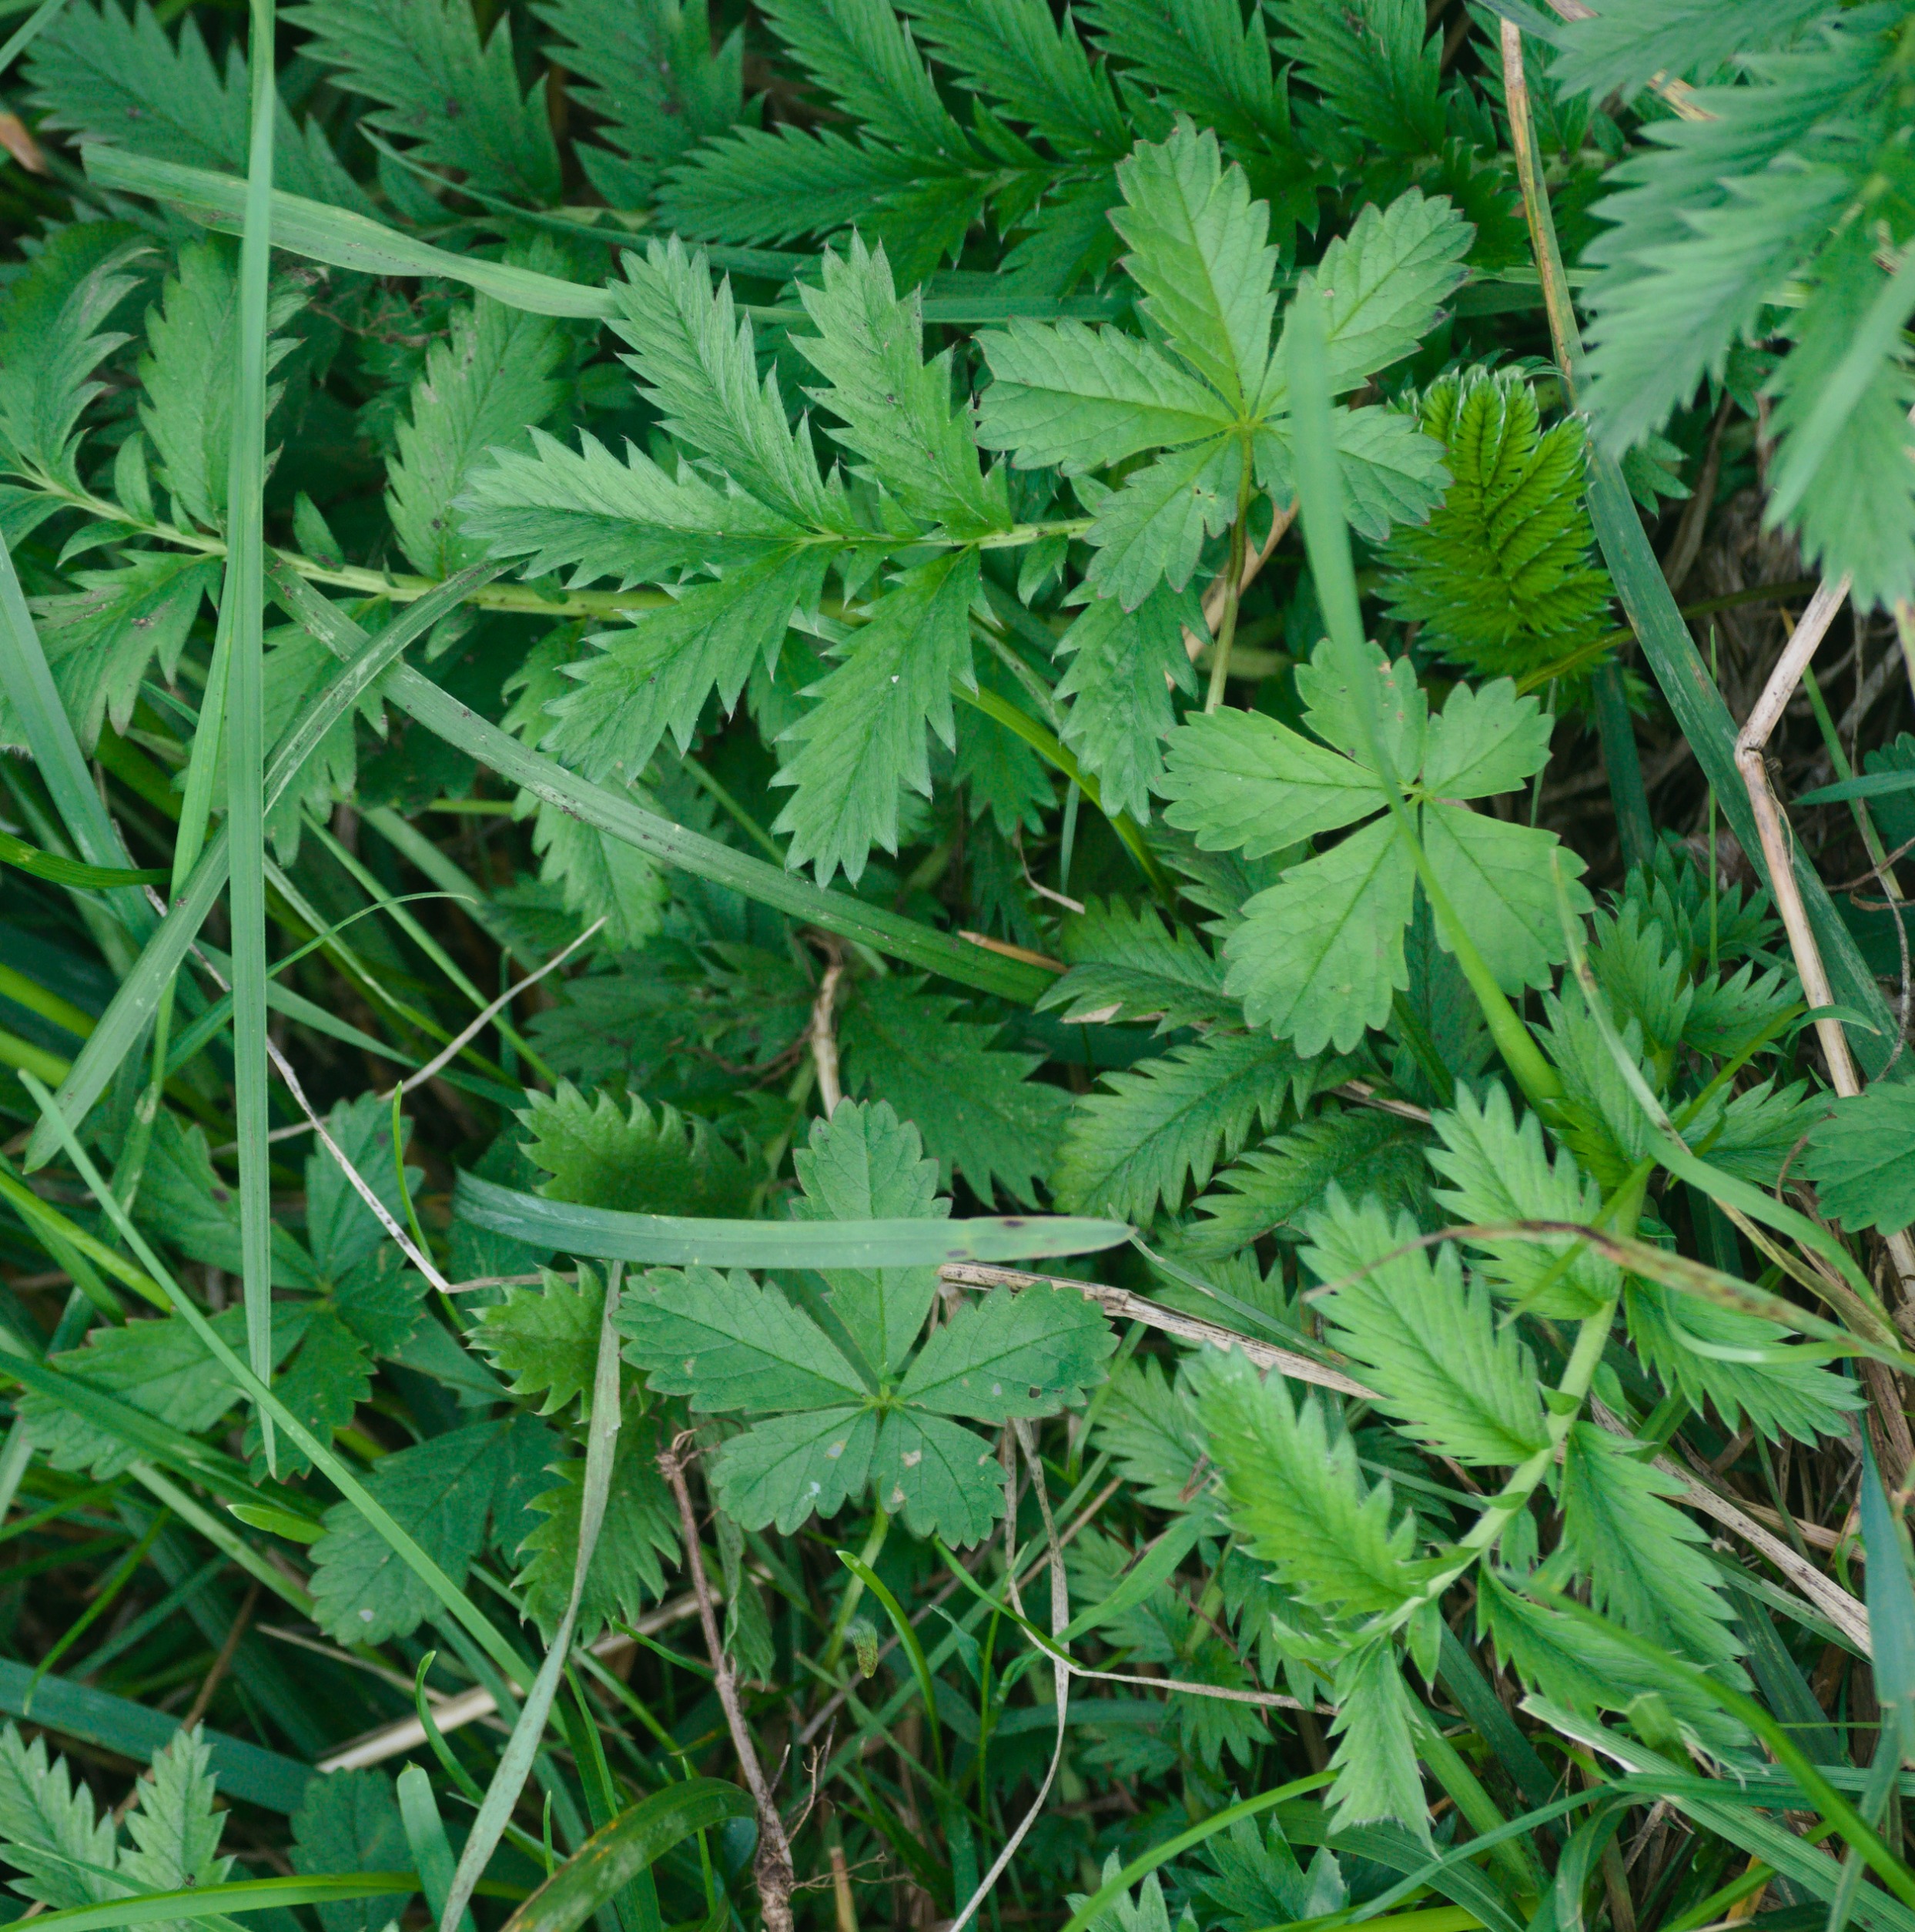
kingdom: Plantae
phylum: Tracheophyta
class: Magnoliopsida
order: Rosales
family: Rosaceae
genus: Argentina
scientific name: Argentina anserina
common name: Gåsepotentil
